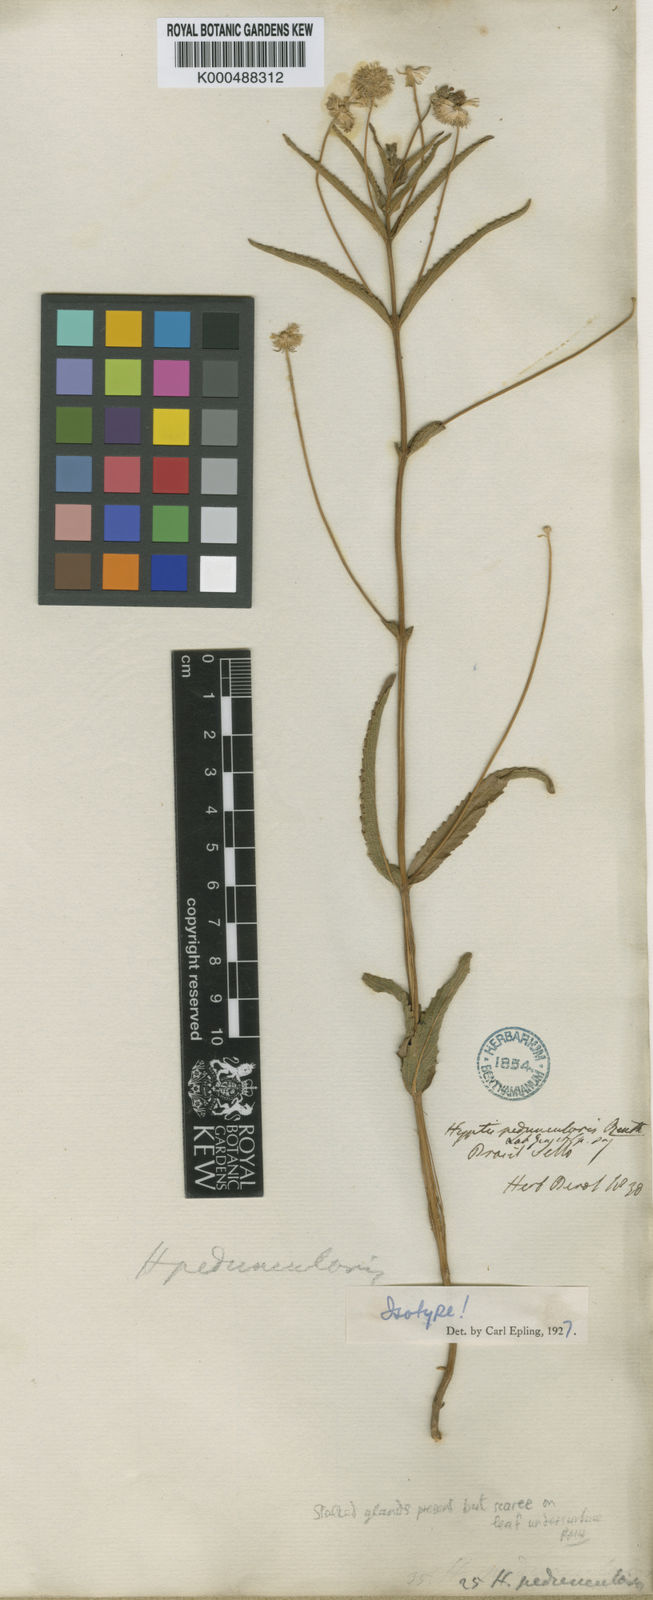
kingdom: Plantae
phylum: Tracheophyta
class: Magnoliopsida
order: Lamiales
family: Lamiaceae
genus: Cyanocephalus
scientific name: Cyanocephalus peduncularis
